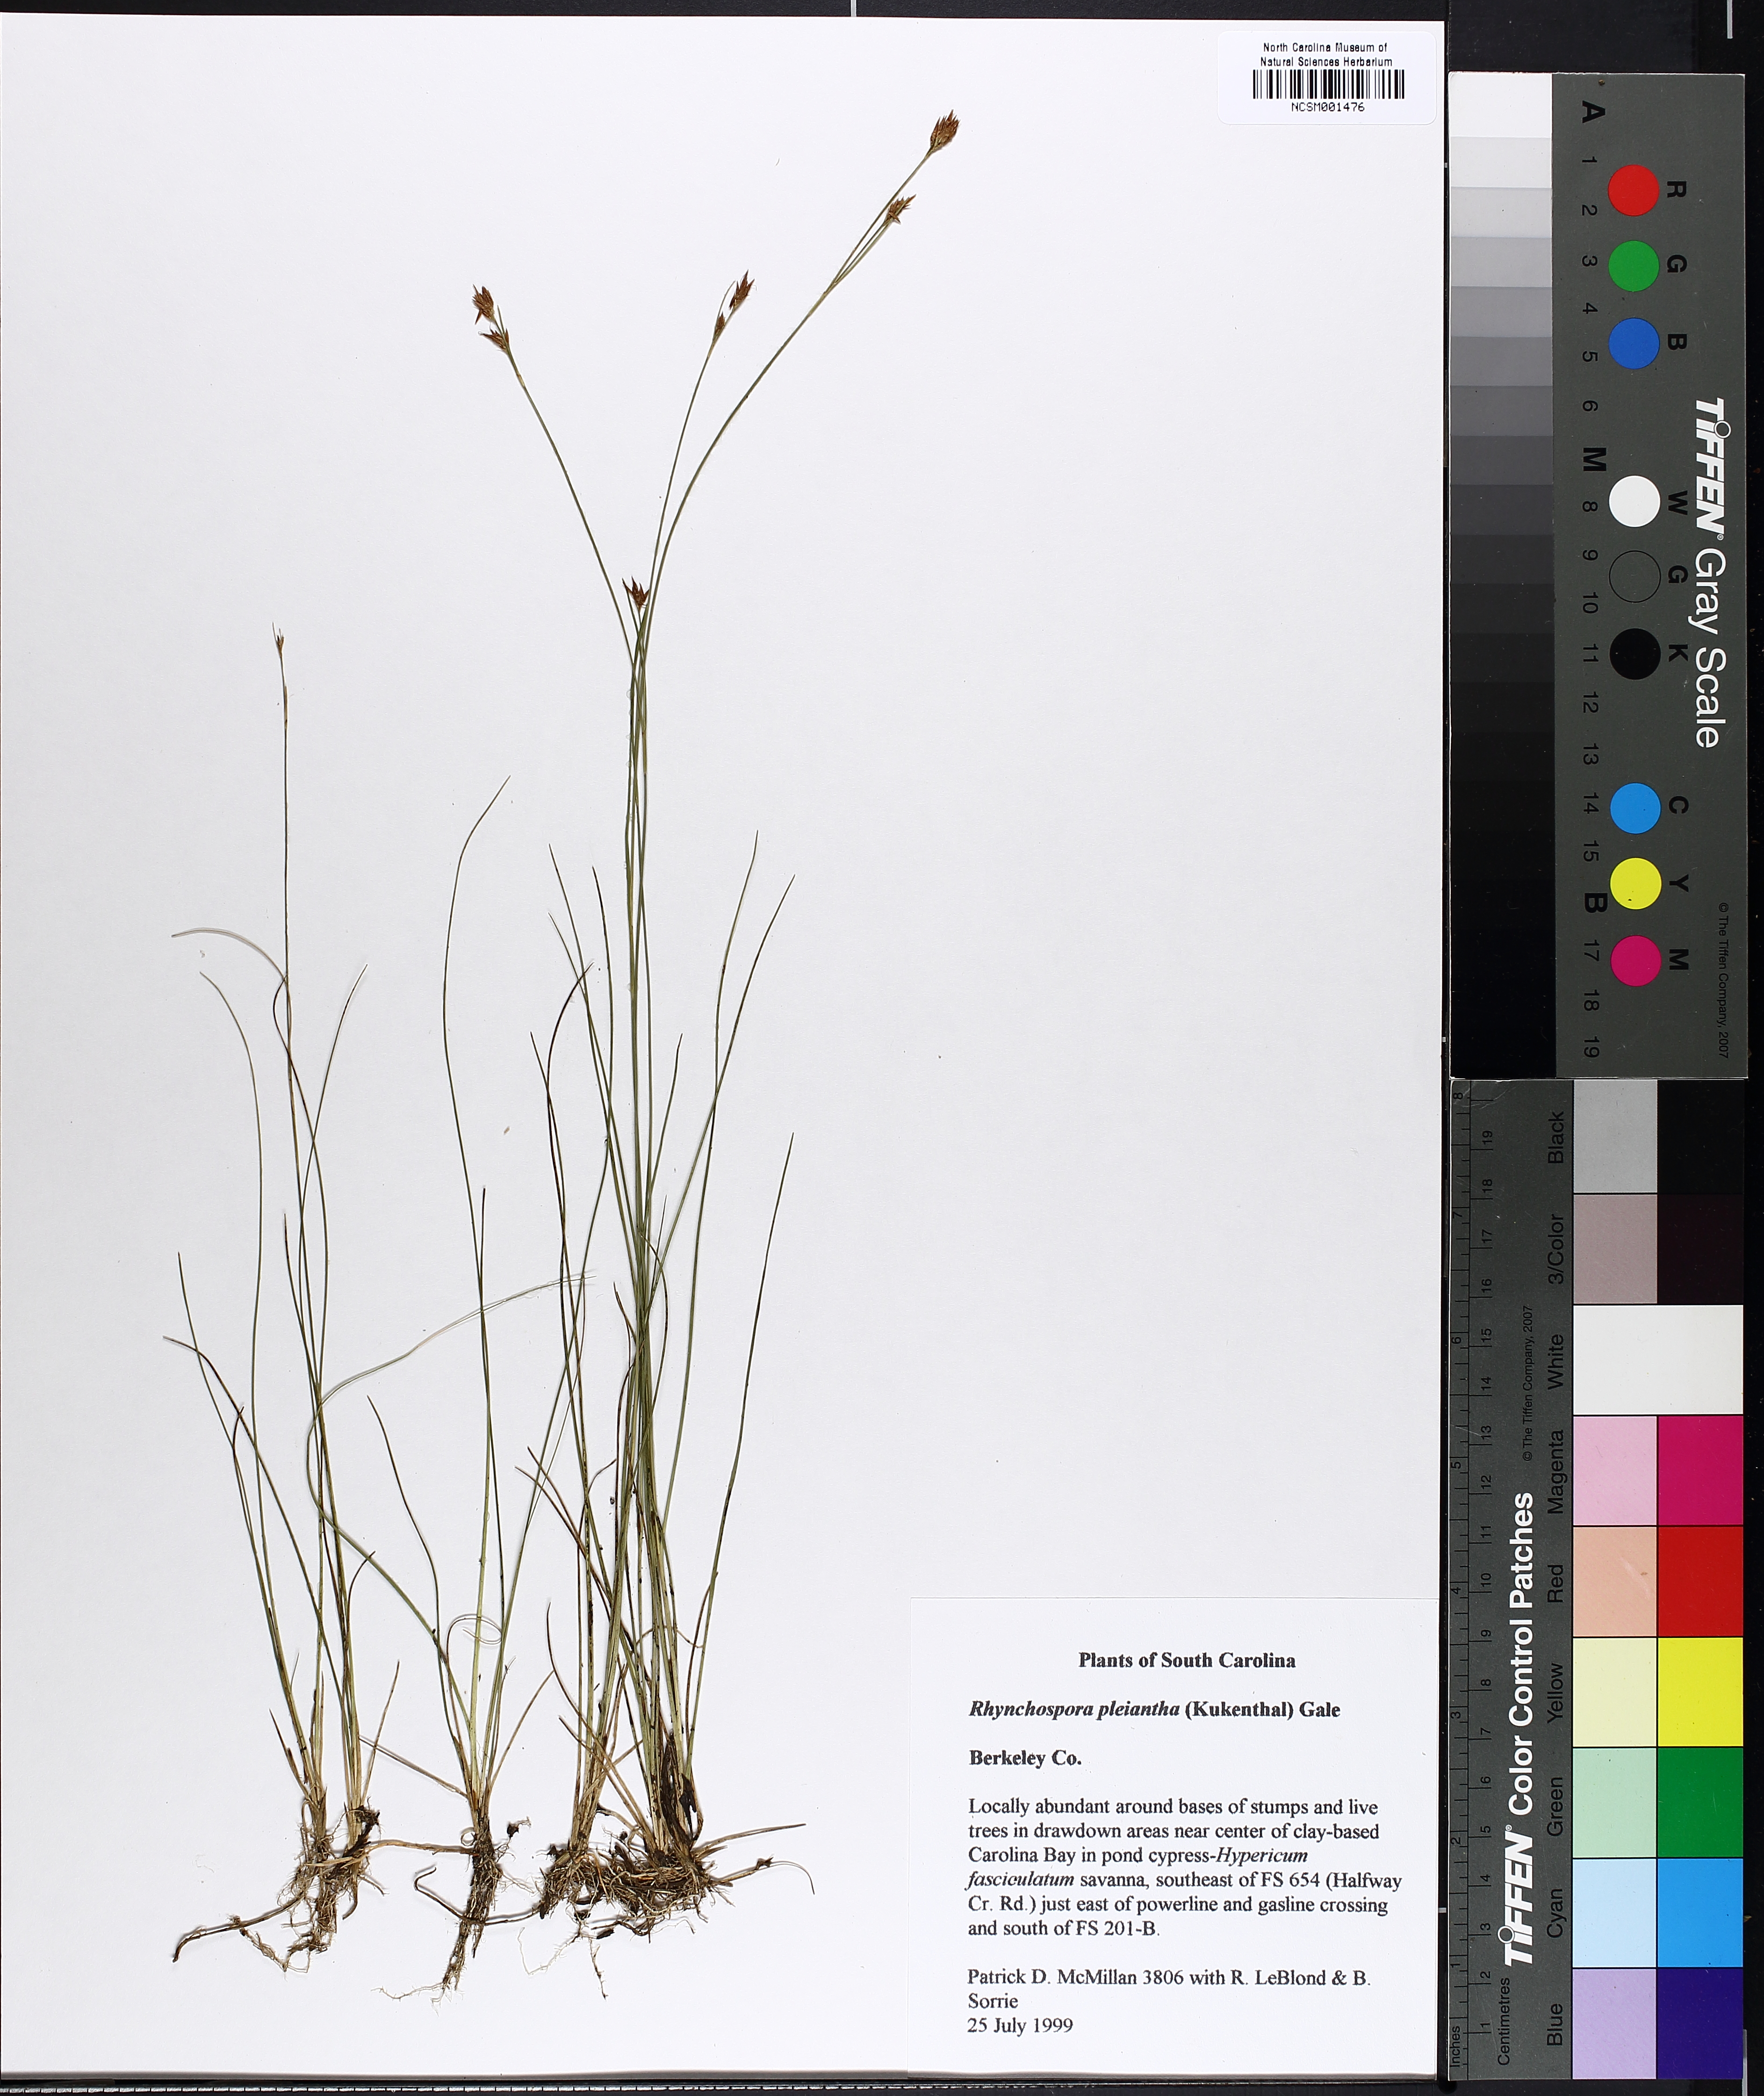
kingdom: Plantae
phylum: Tracheophyta
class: Liliopsida
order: Poales
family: Cyperaceae
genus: Rhynchospora
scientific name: Rhynchospora pleiantha
